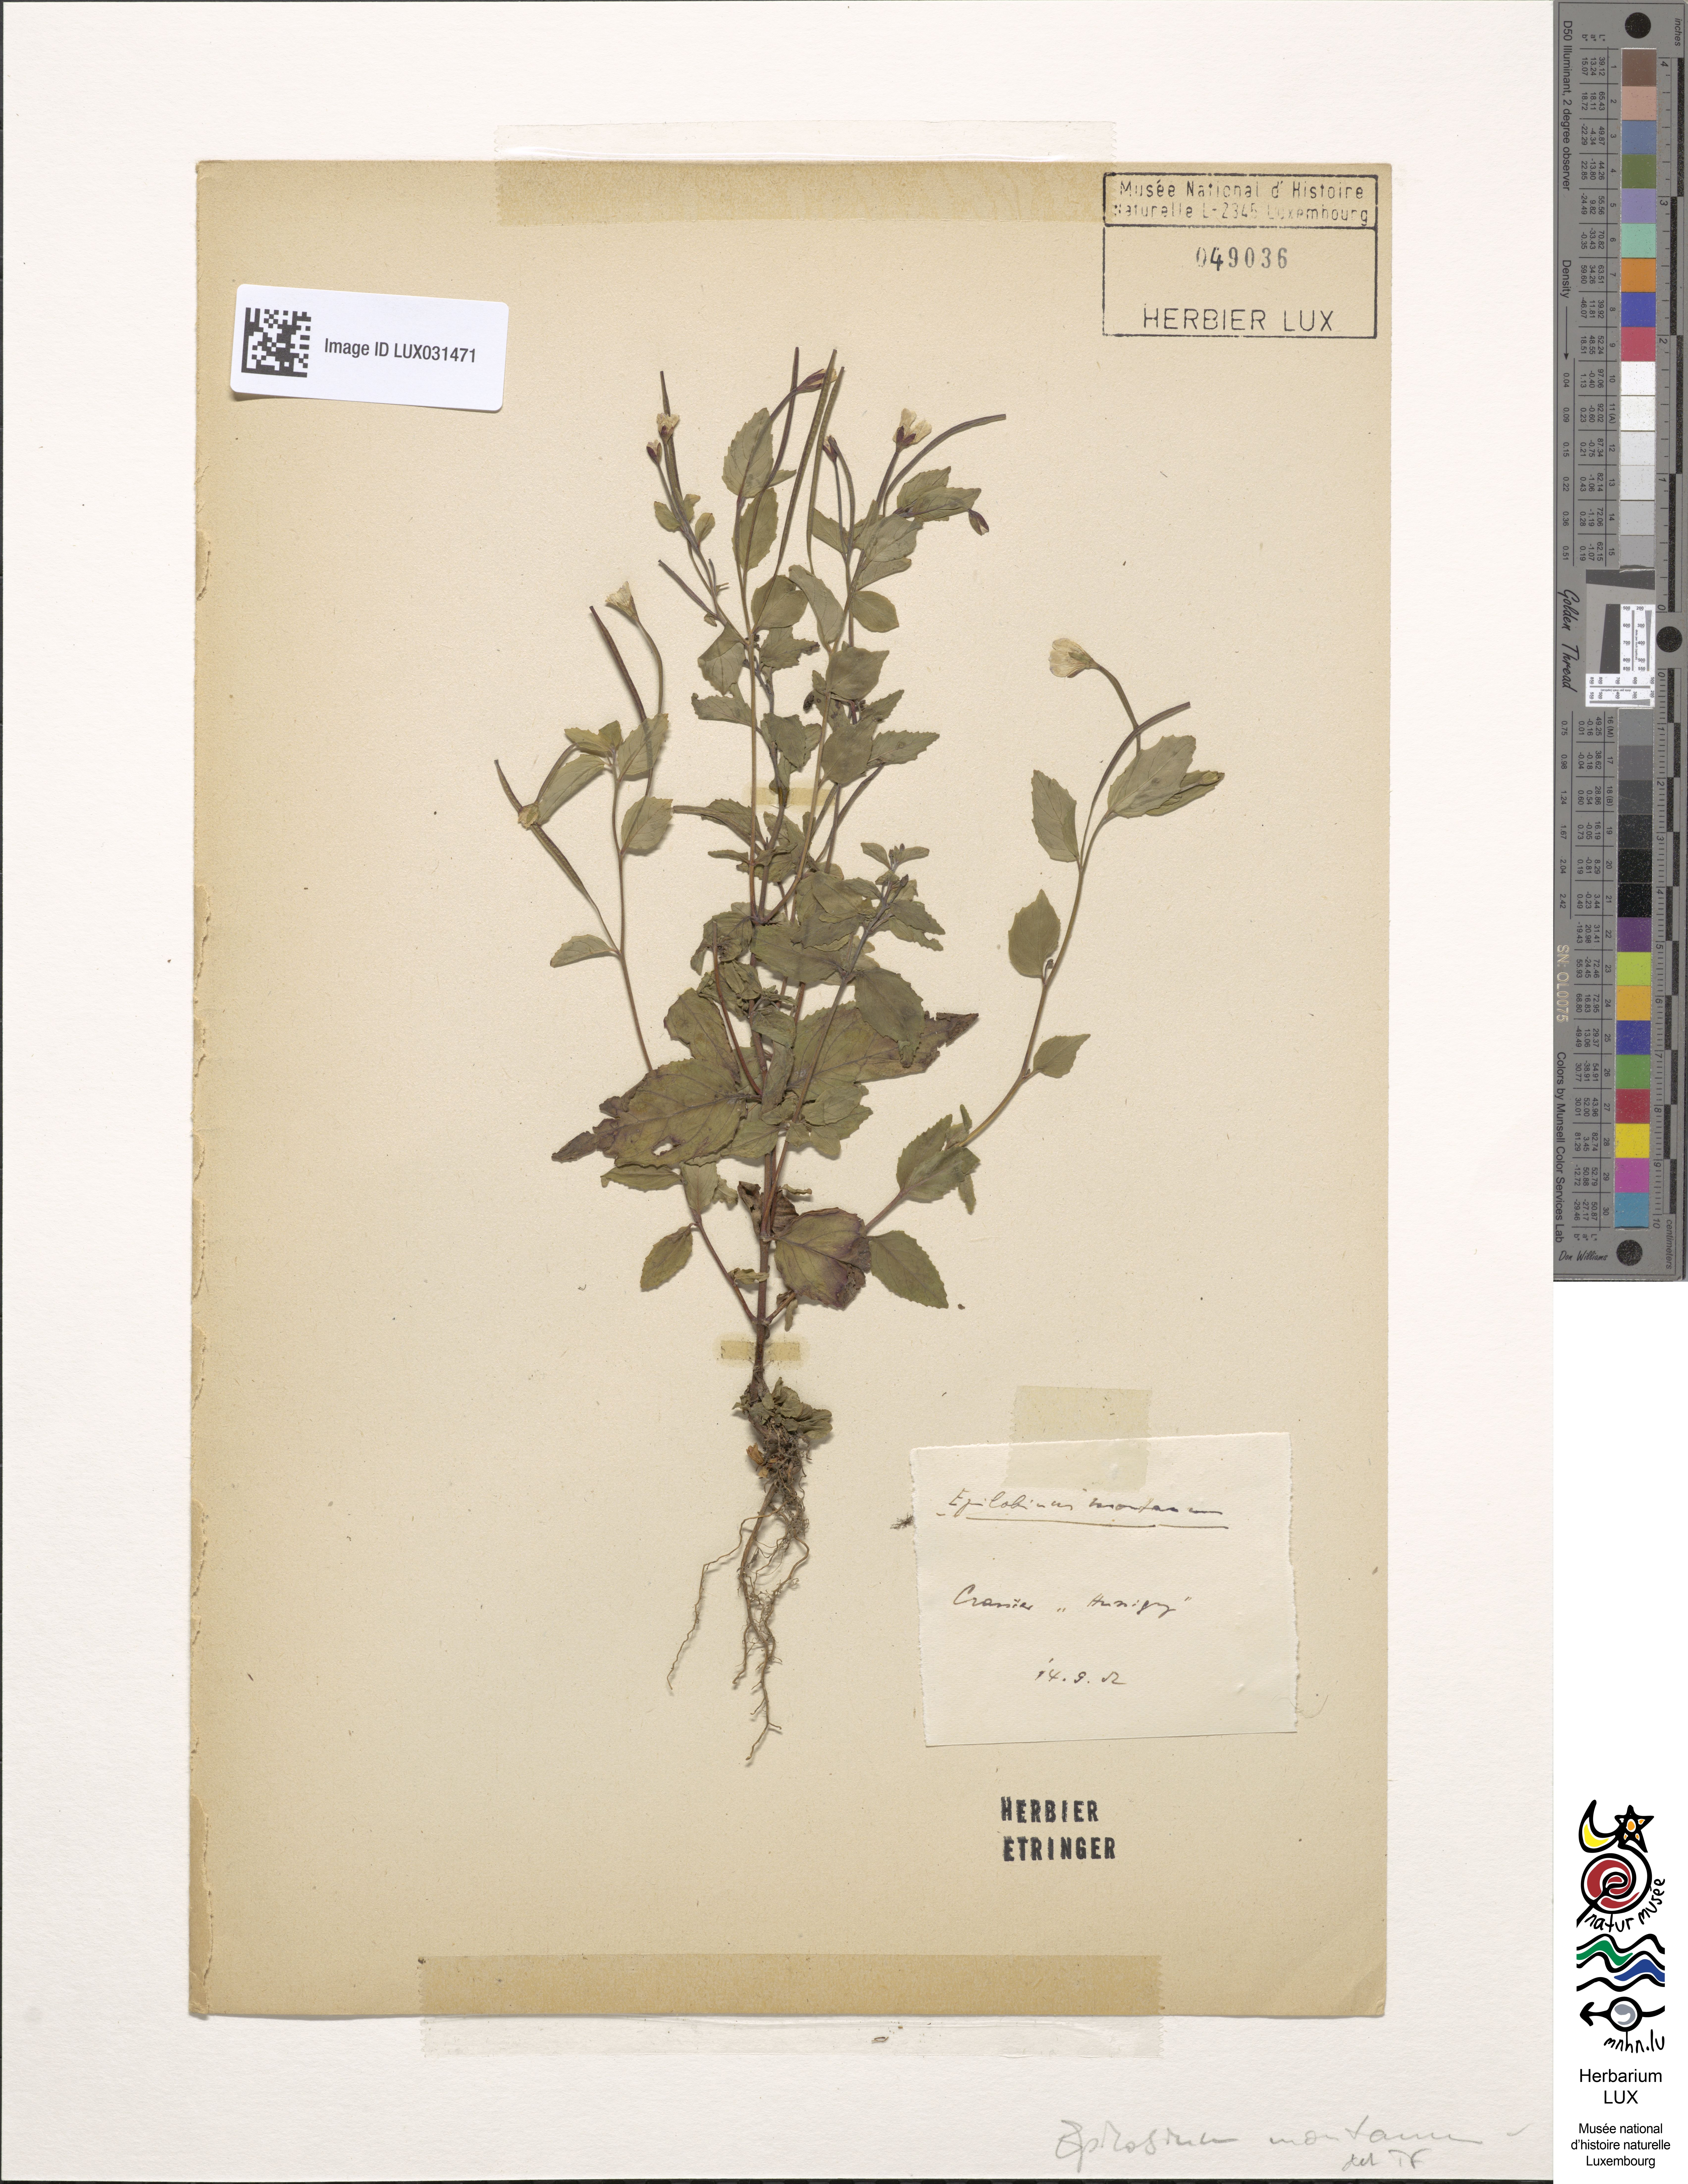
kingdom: Plantae
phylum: Tracheophyta
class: Magnoliopsida
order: Myrtales
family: Onagraceae
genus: Epilobium
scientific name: Epilobium montanum
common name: Broad-leaved willowherb
